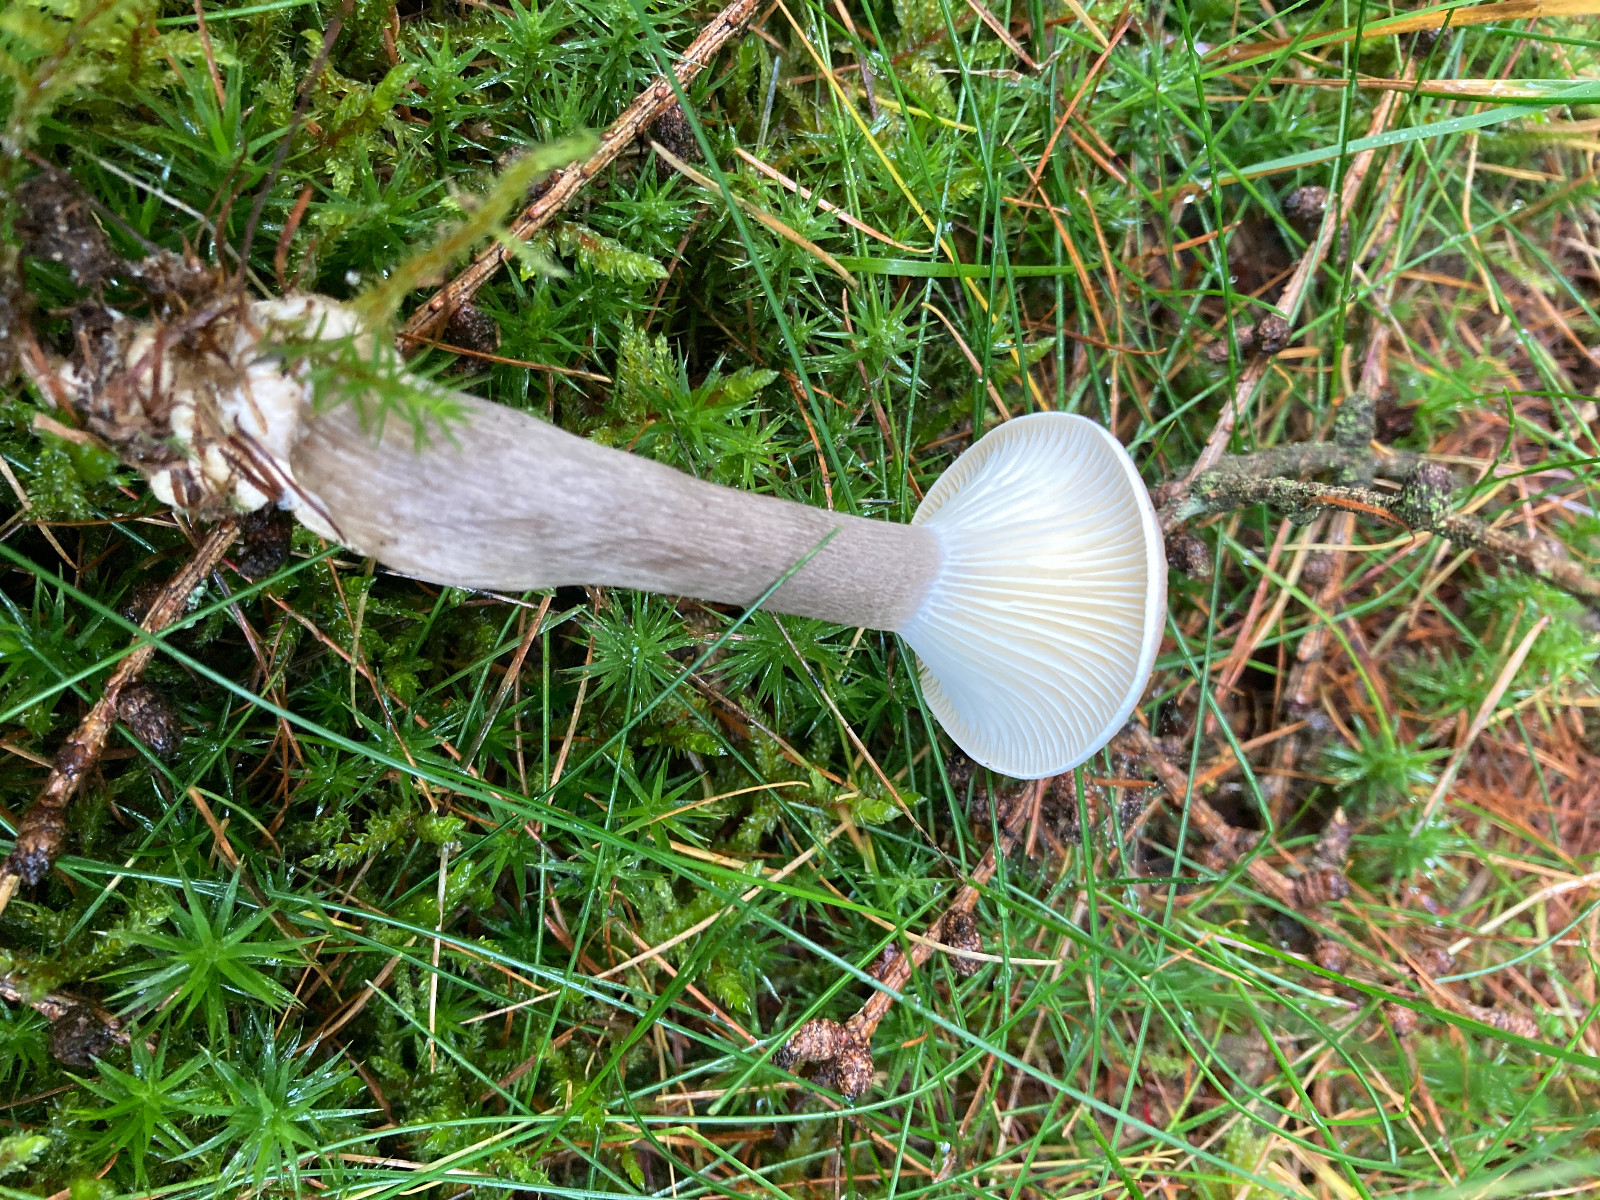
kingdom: Fungi
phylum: Basidiomycota
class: Agaricomycetes
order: Agaricales
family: Hygrophoraceae
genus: Ampulloclitocybe
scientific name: Ampulloclitocybe clavipes
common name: køllefod
